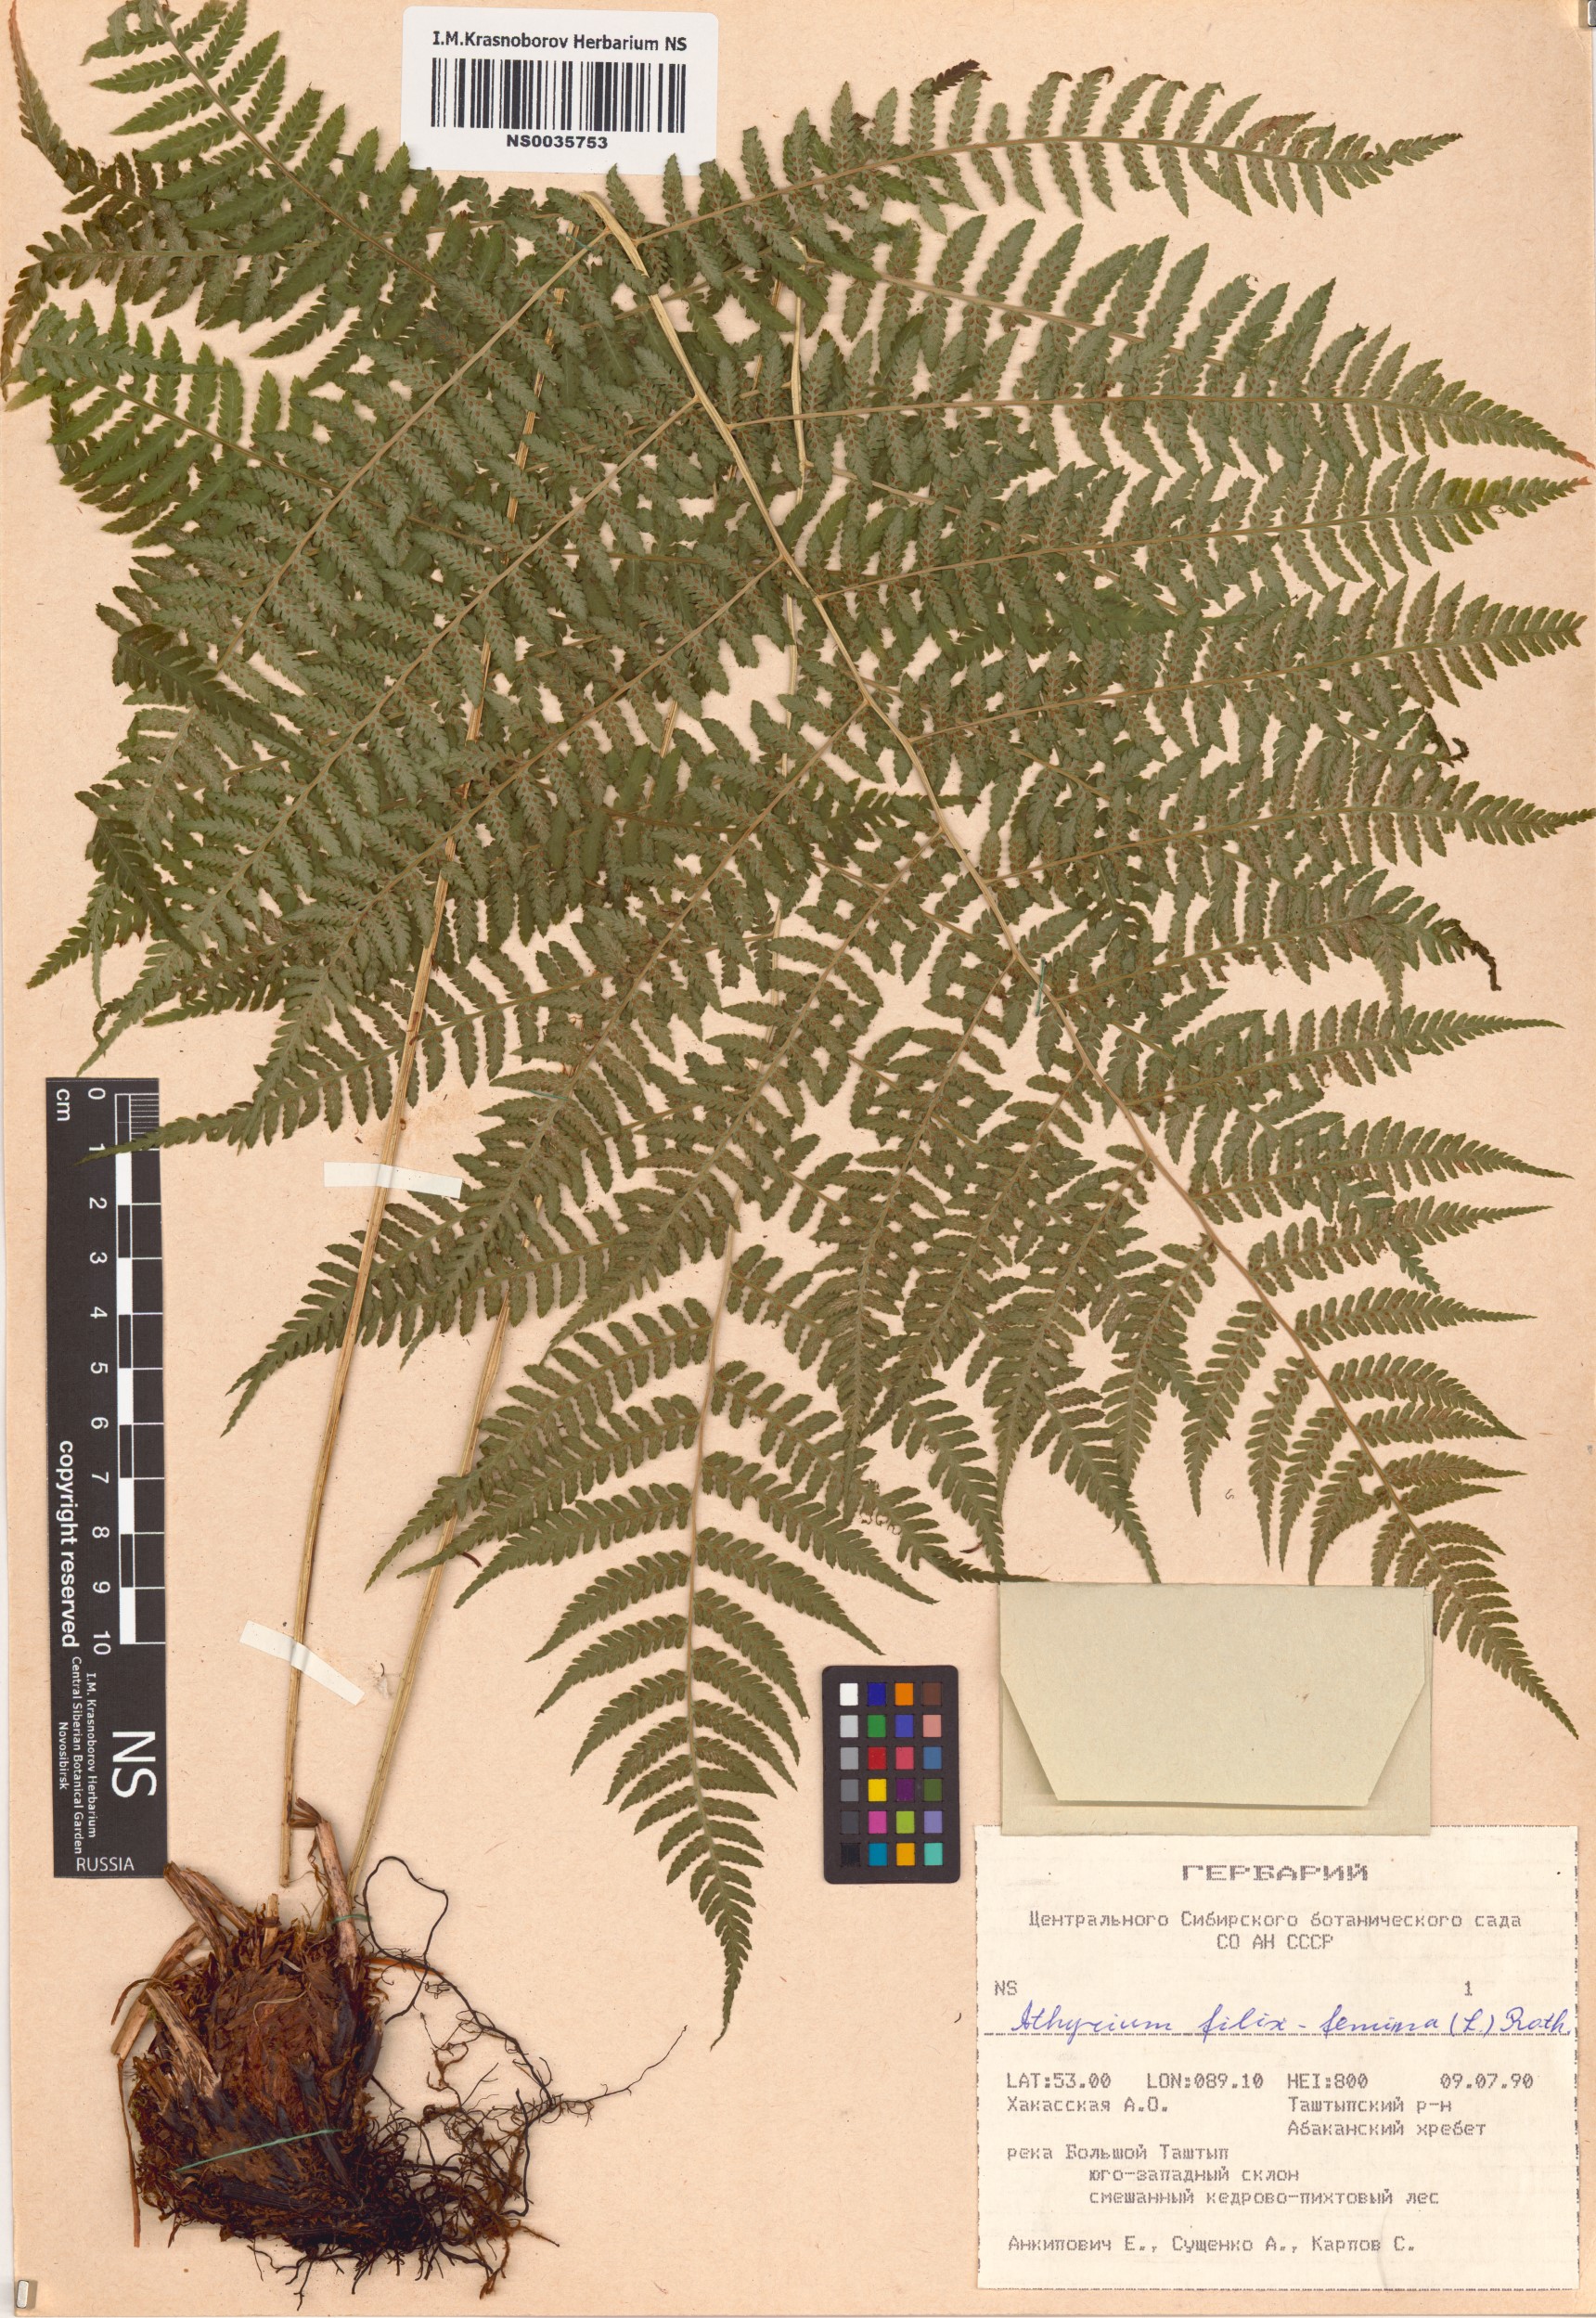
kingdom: Plantae
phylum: Tracheophyta
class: Polypodiopsida
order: Polypodiales
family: Athyriaceae
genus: Athyrium
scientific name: Athyrium filix-femina
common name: Lady fern
